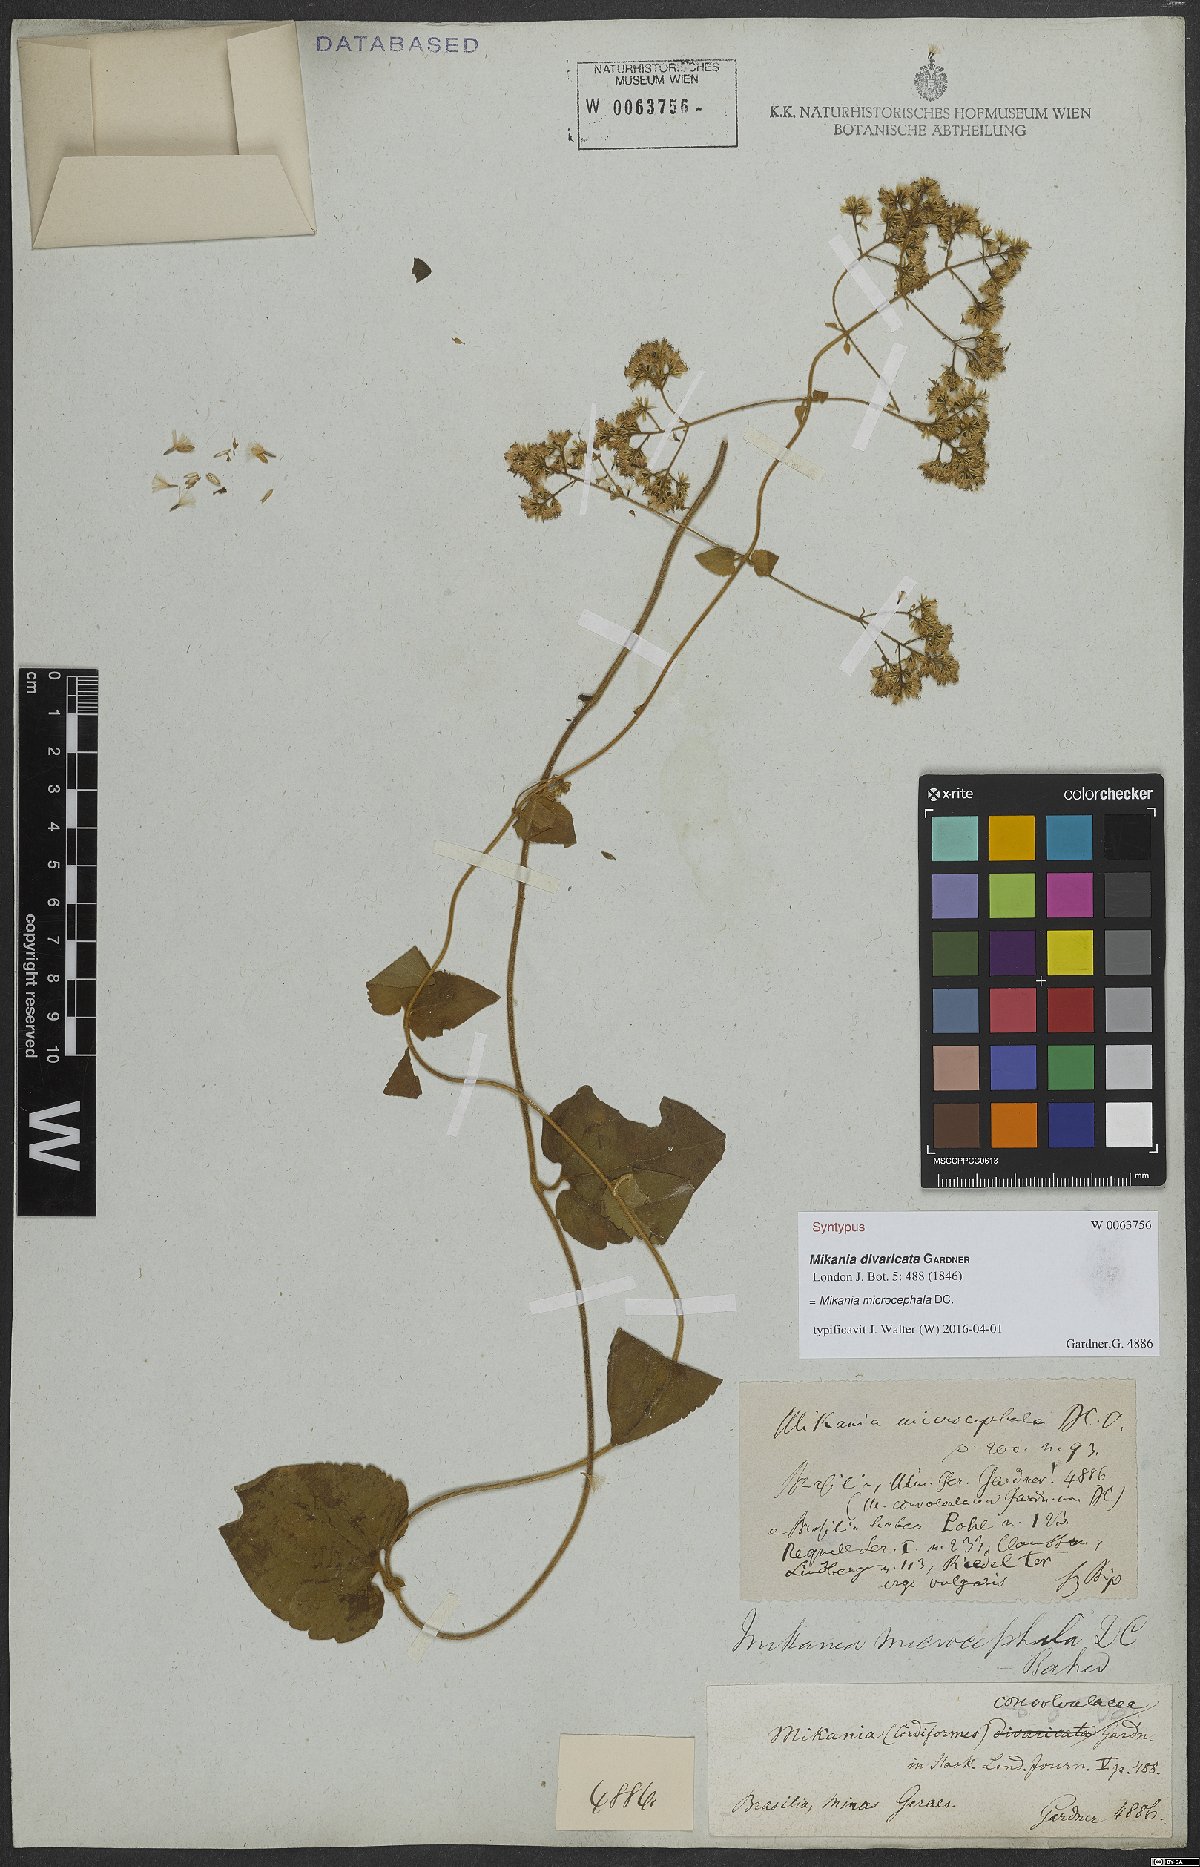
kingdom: Plantae
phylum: Tracheophyta
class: Magnoliopsida
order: Asterales
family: Asteraceae
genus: Mikania
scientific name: Mikania microcephala
